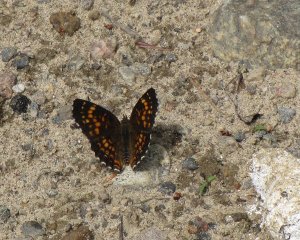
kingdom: Animalia
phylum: Arthropoda
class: Insecta
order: Lepidoptera
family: Nymphalidae
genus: Chlosyne
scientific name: Chlosyne harrisii
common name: Harris's Checkerspot
